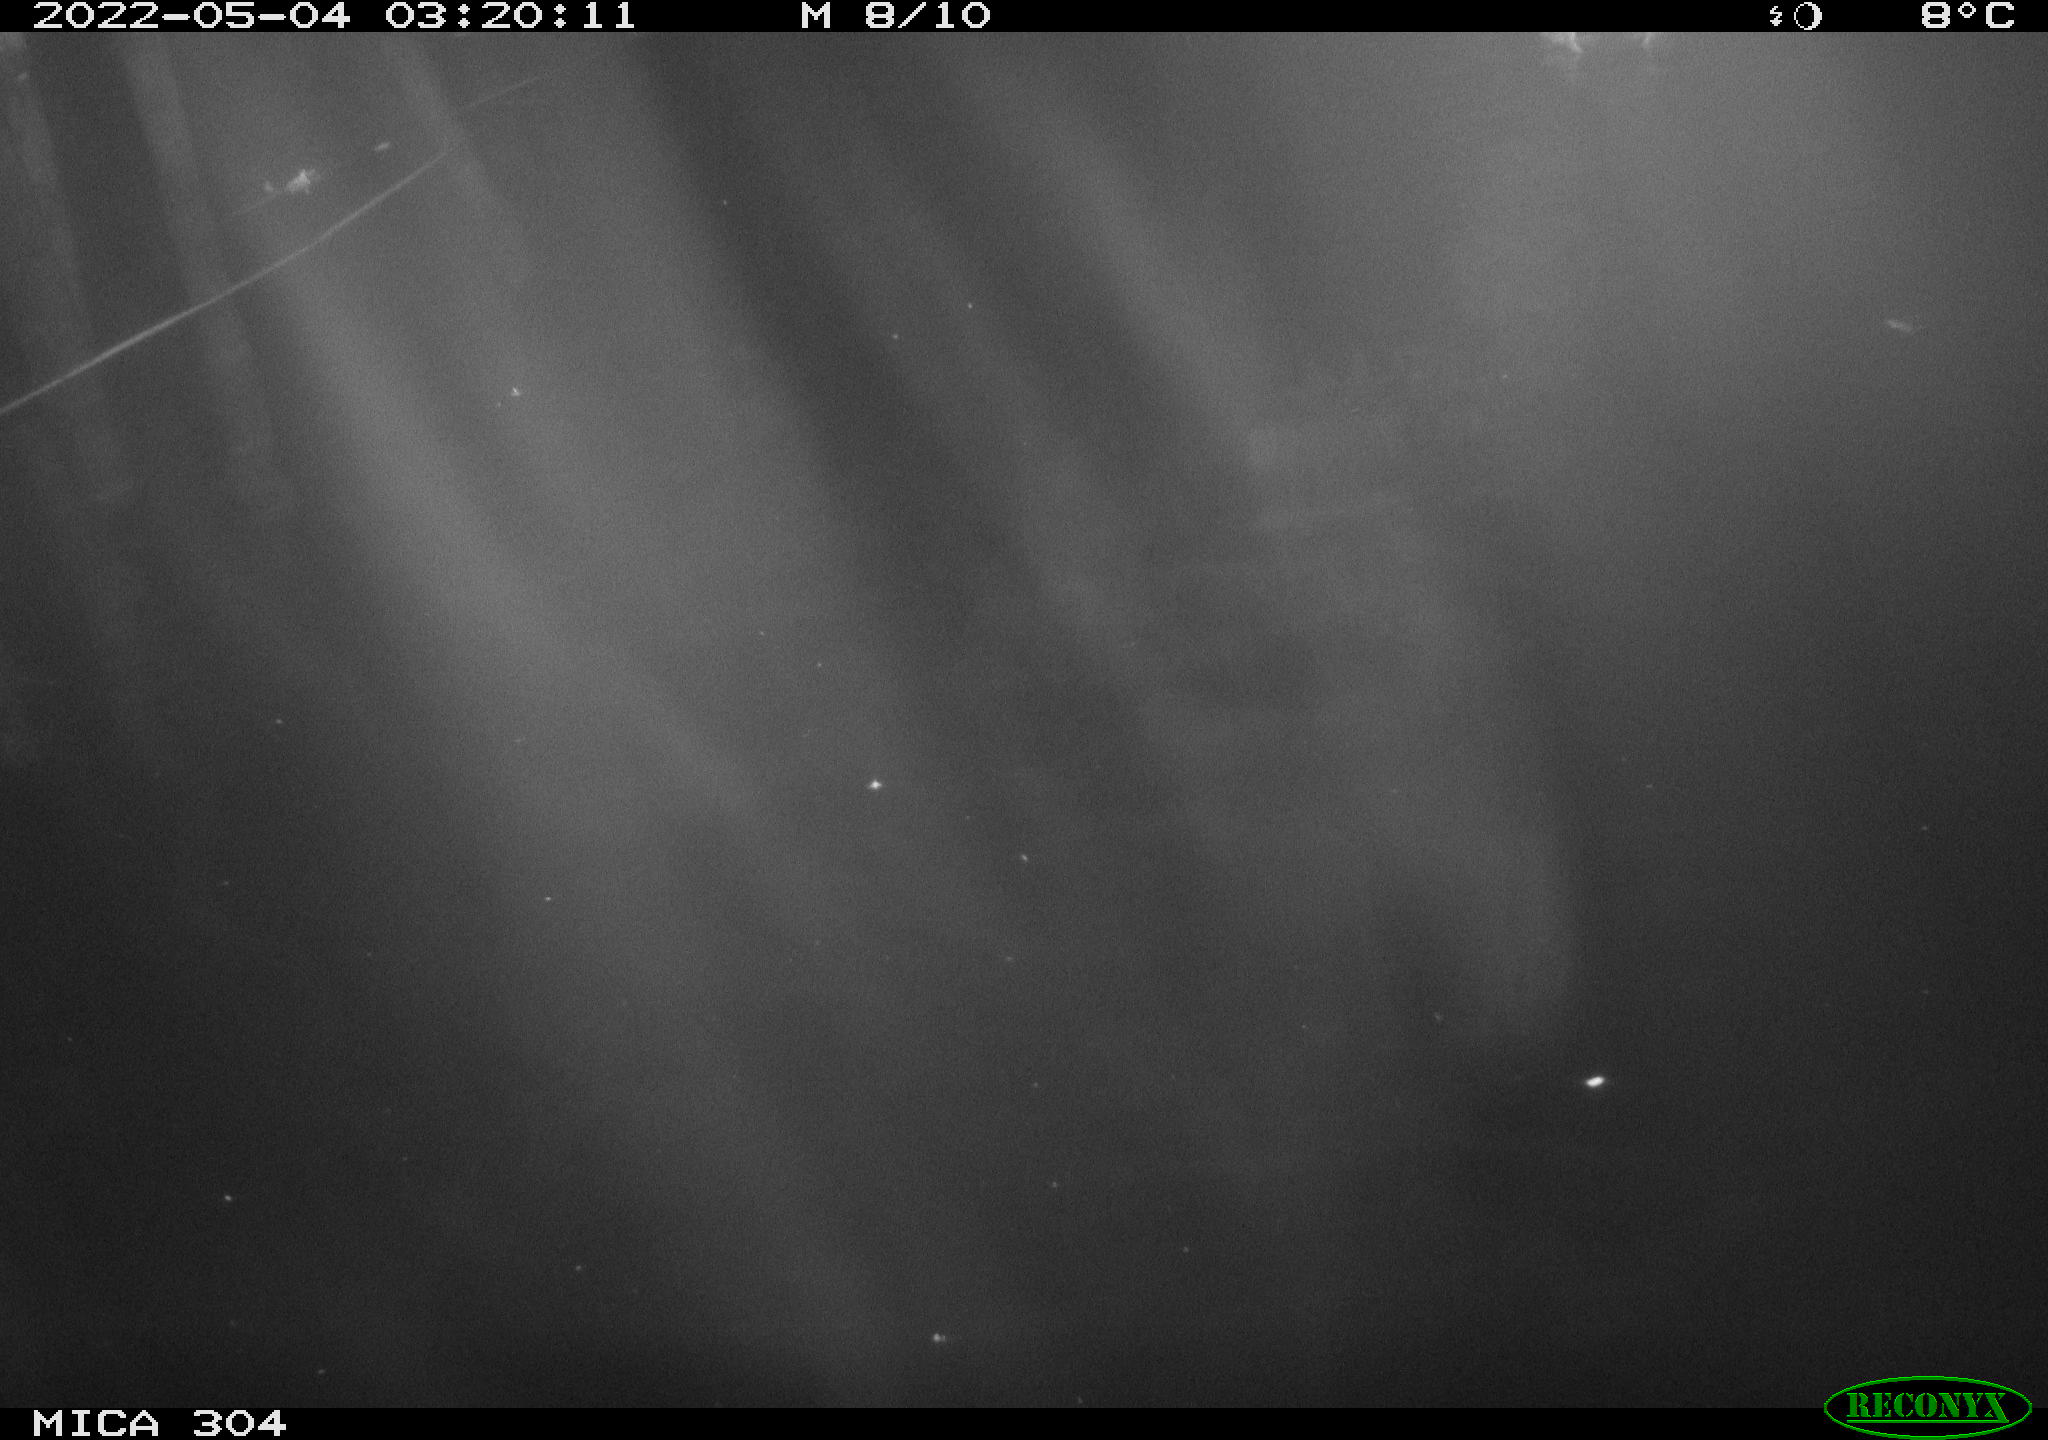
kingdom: Animalia
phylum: Chordata
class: Aves
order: Anseriformes
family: Anatidae
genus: Anas
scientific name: Anas platyrhynchos
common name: Mallard
